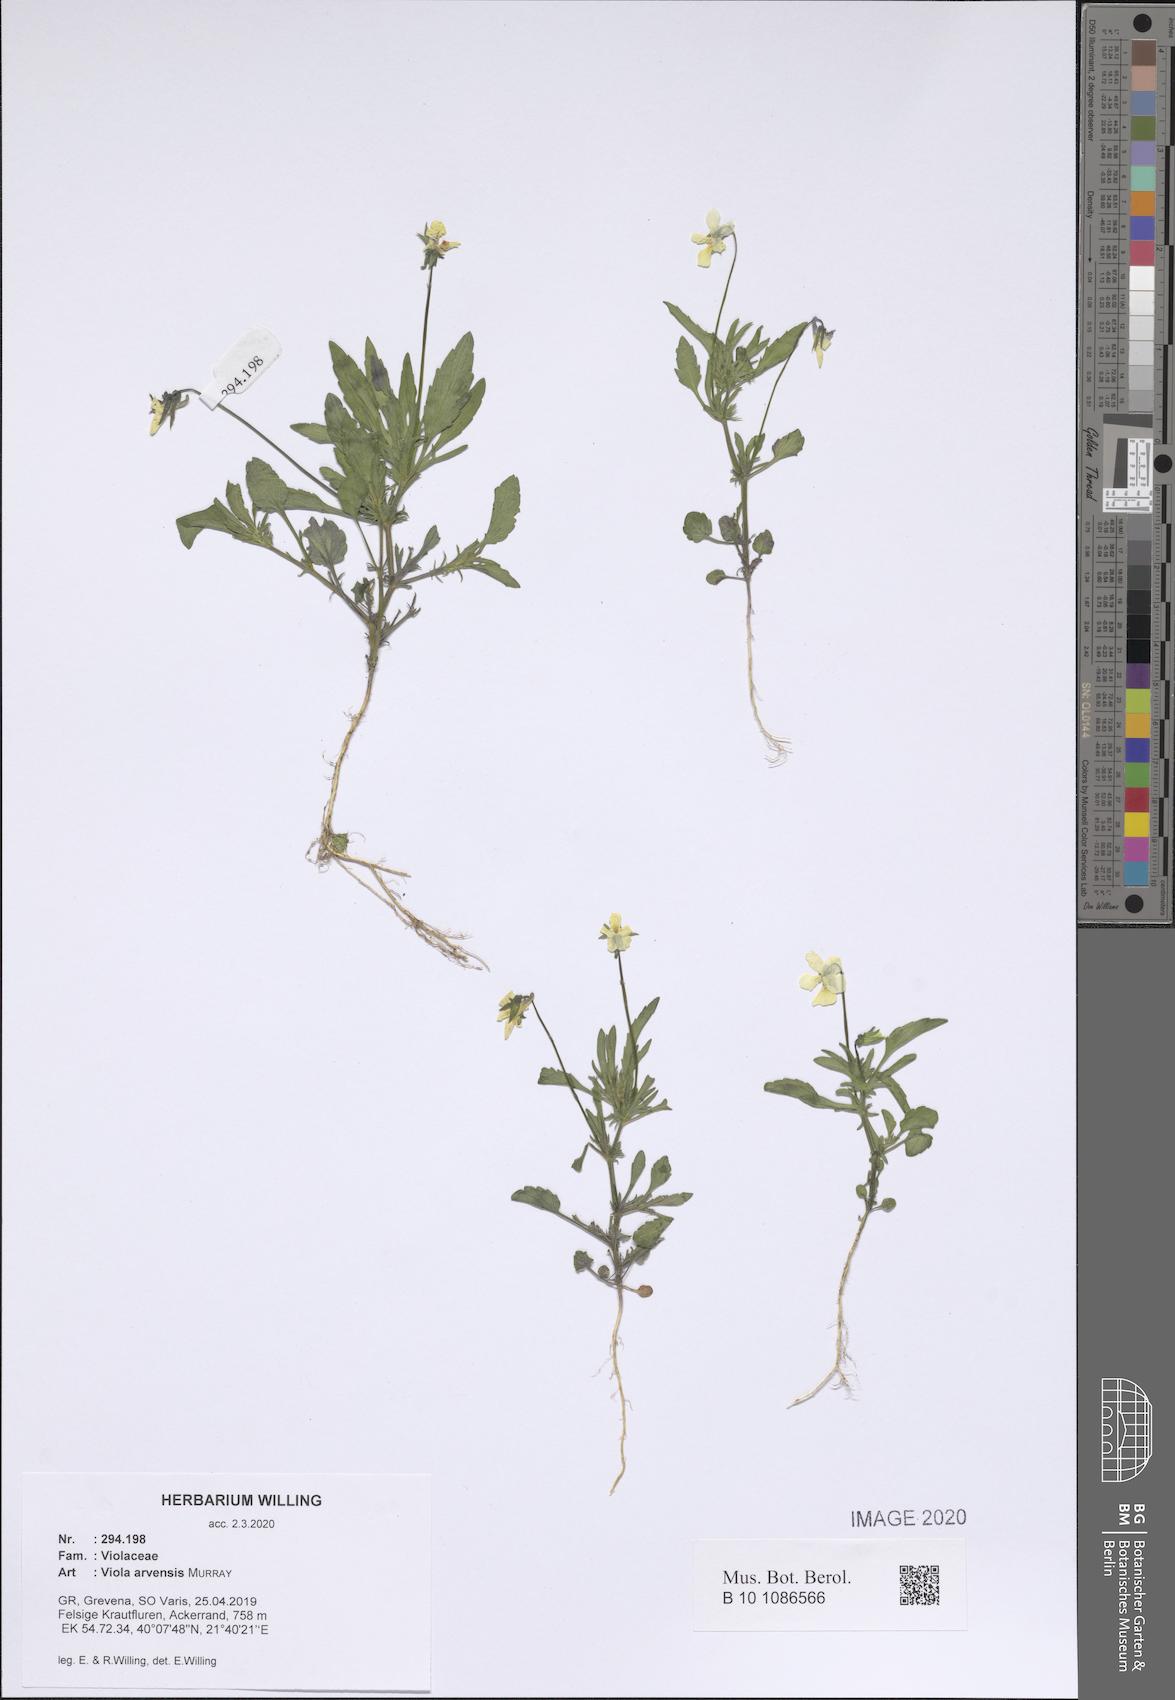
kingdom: Plantae
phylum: Tracheophyta
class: Magnoliopsida
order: Malpighiales
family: Violaceae
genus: Viola
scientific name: Viola arvensis
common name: Field pansy
